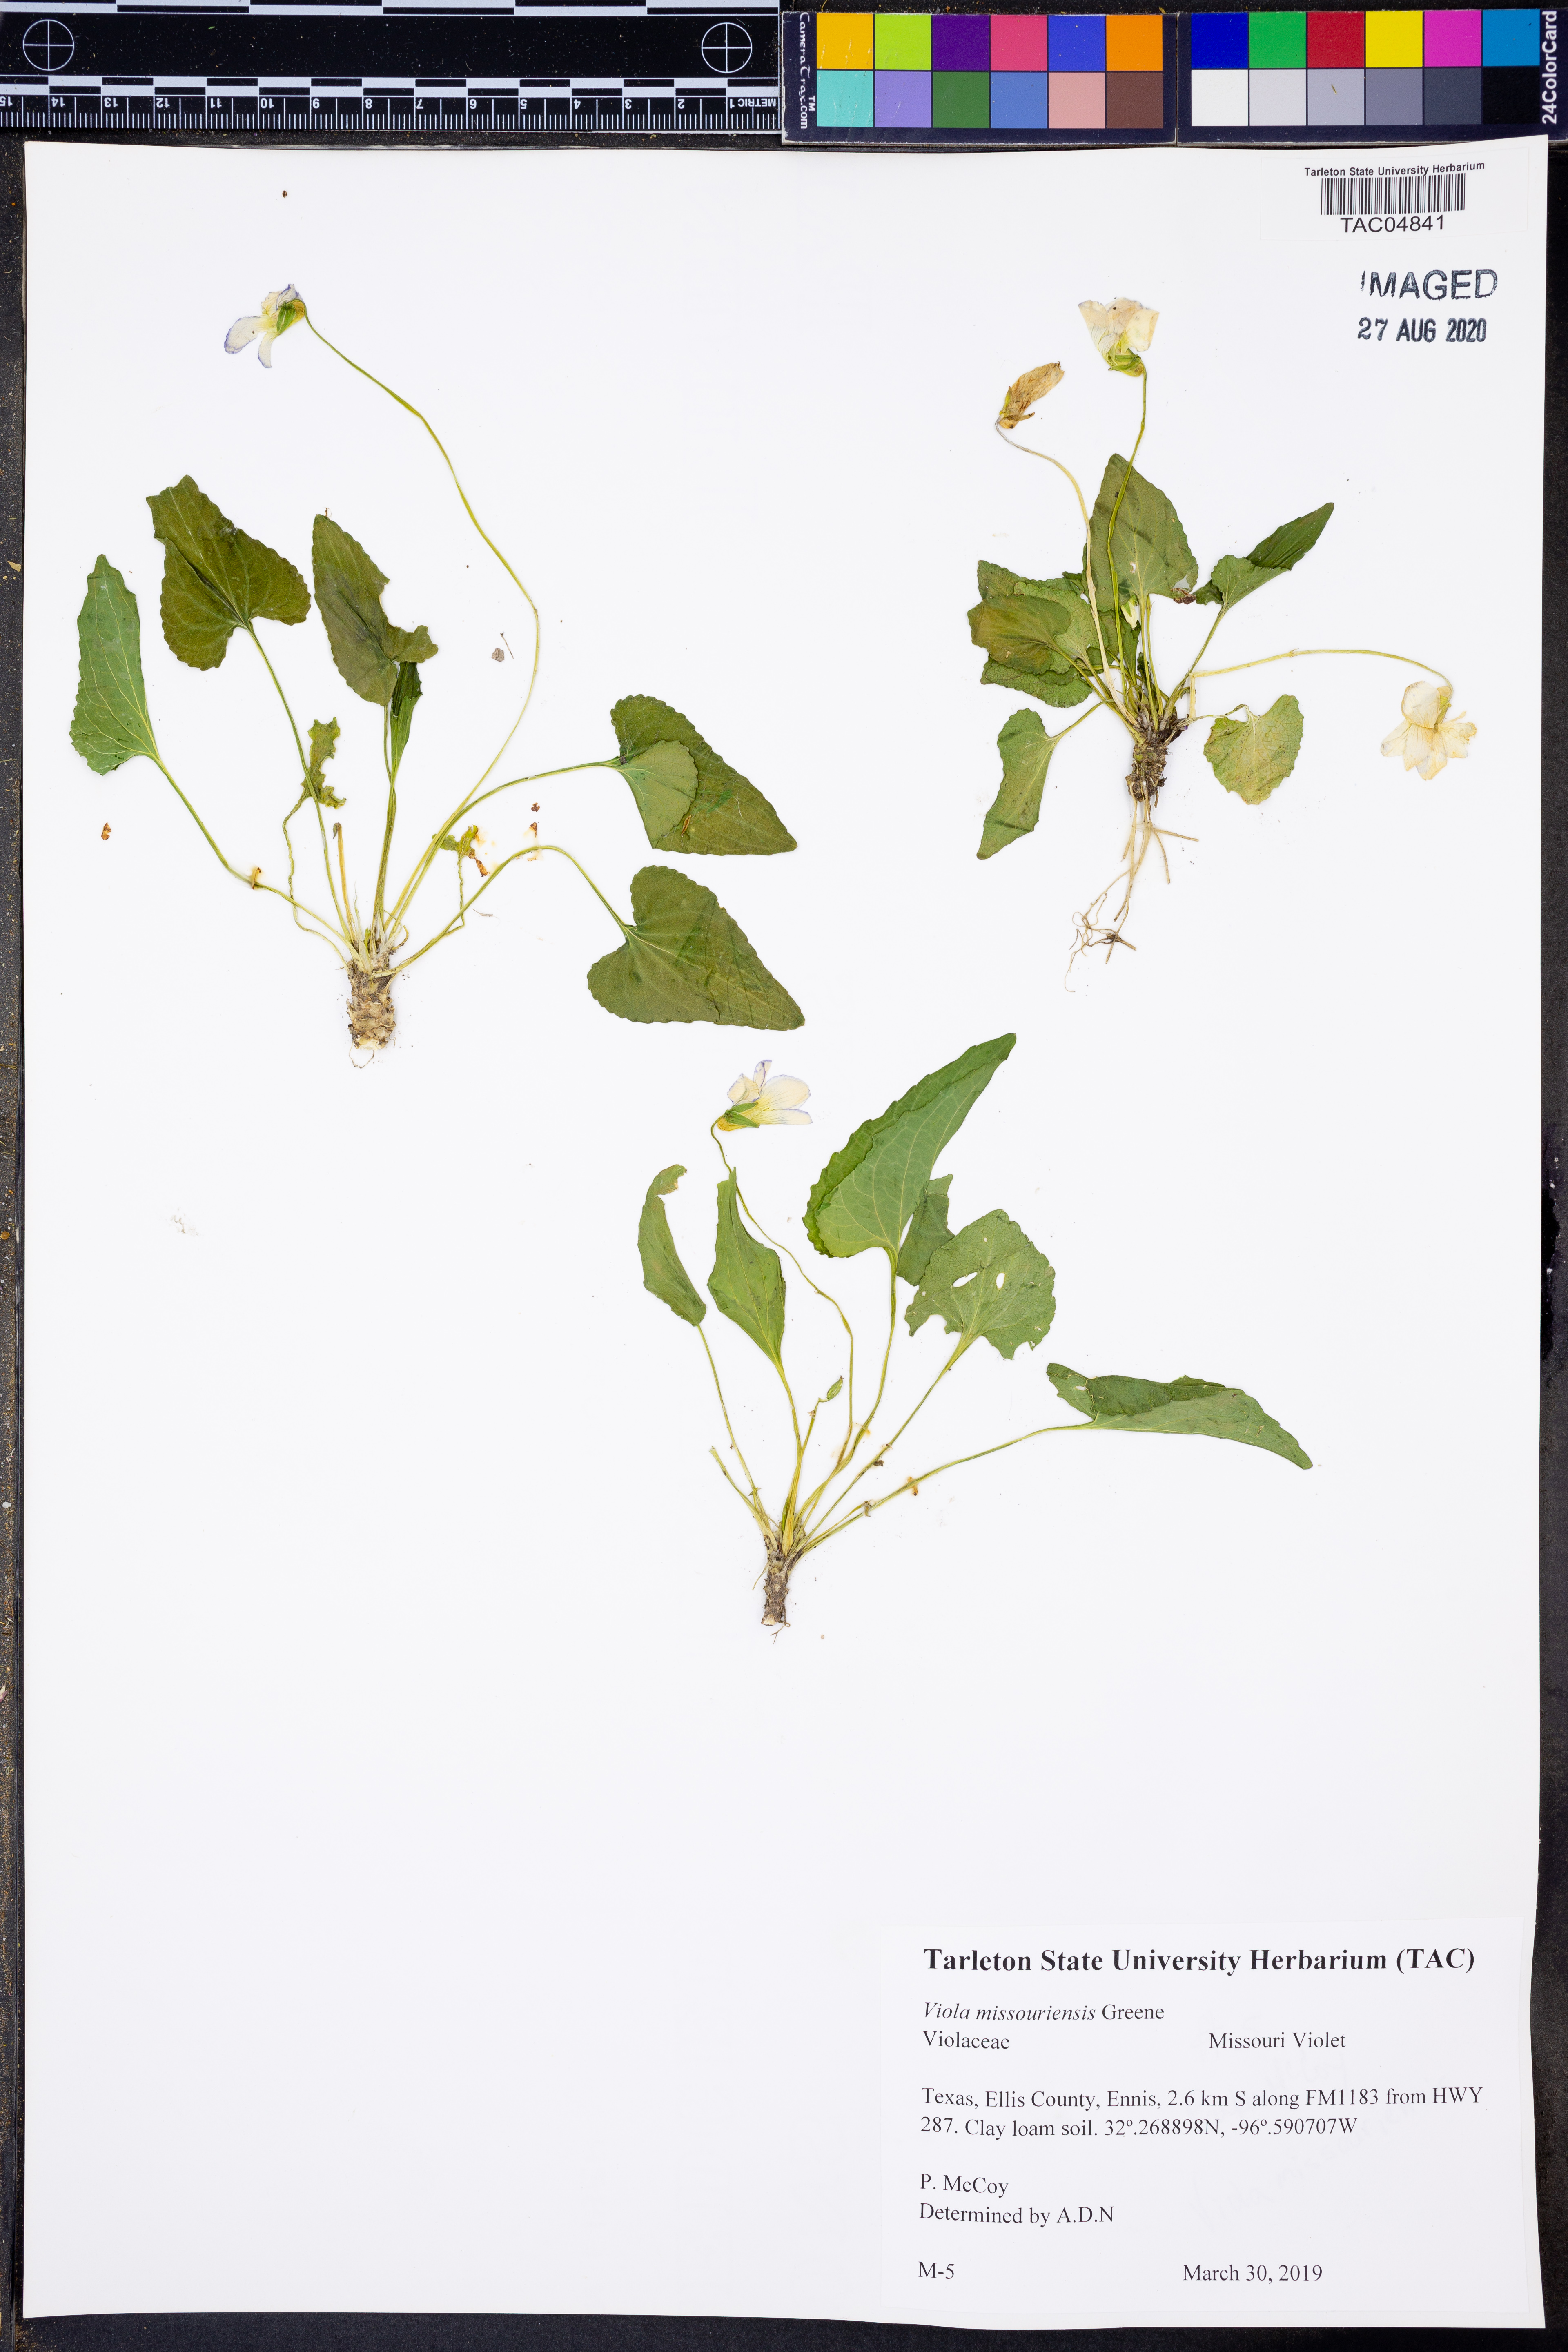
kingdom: Plantae
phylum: Tracheophyta
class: Magnoliopsida
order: Malpighiales
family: Violaceae
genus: Viola
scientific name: Viola missouriensis
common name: Missouri violet
